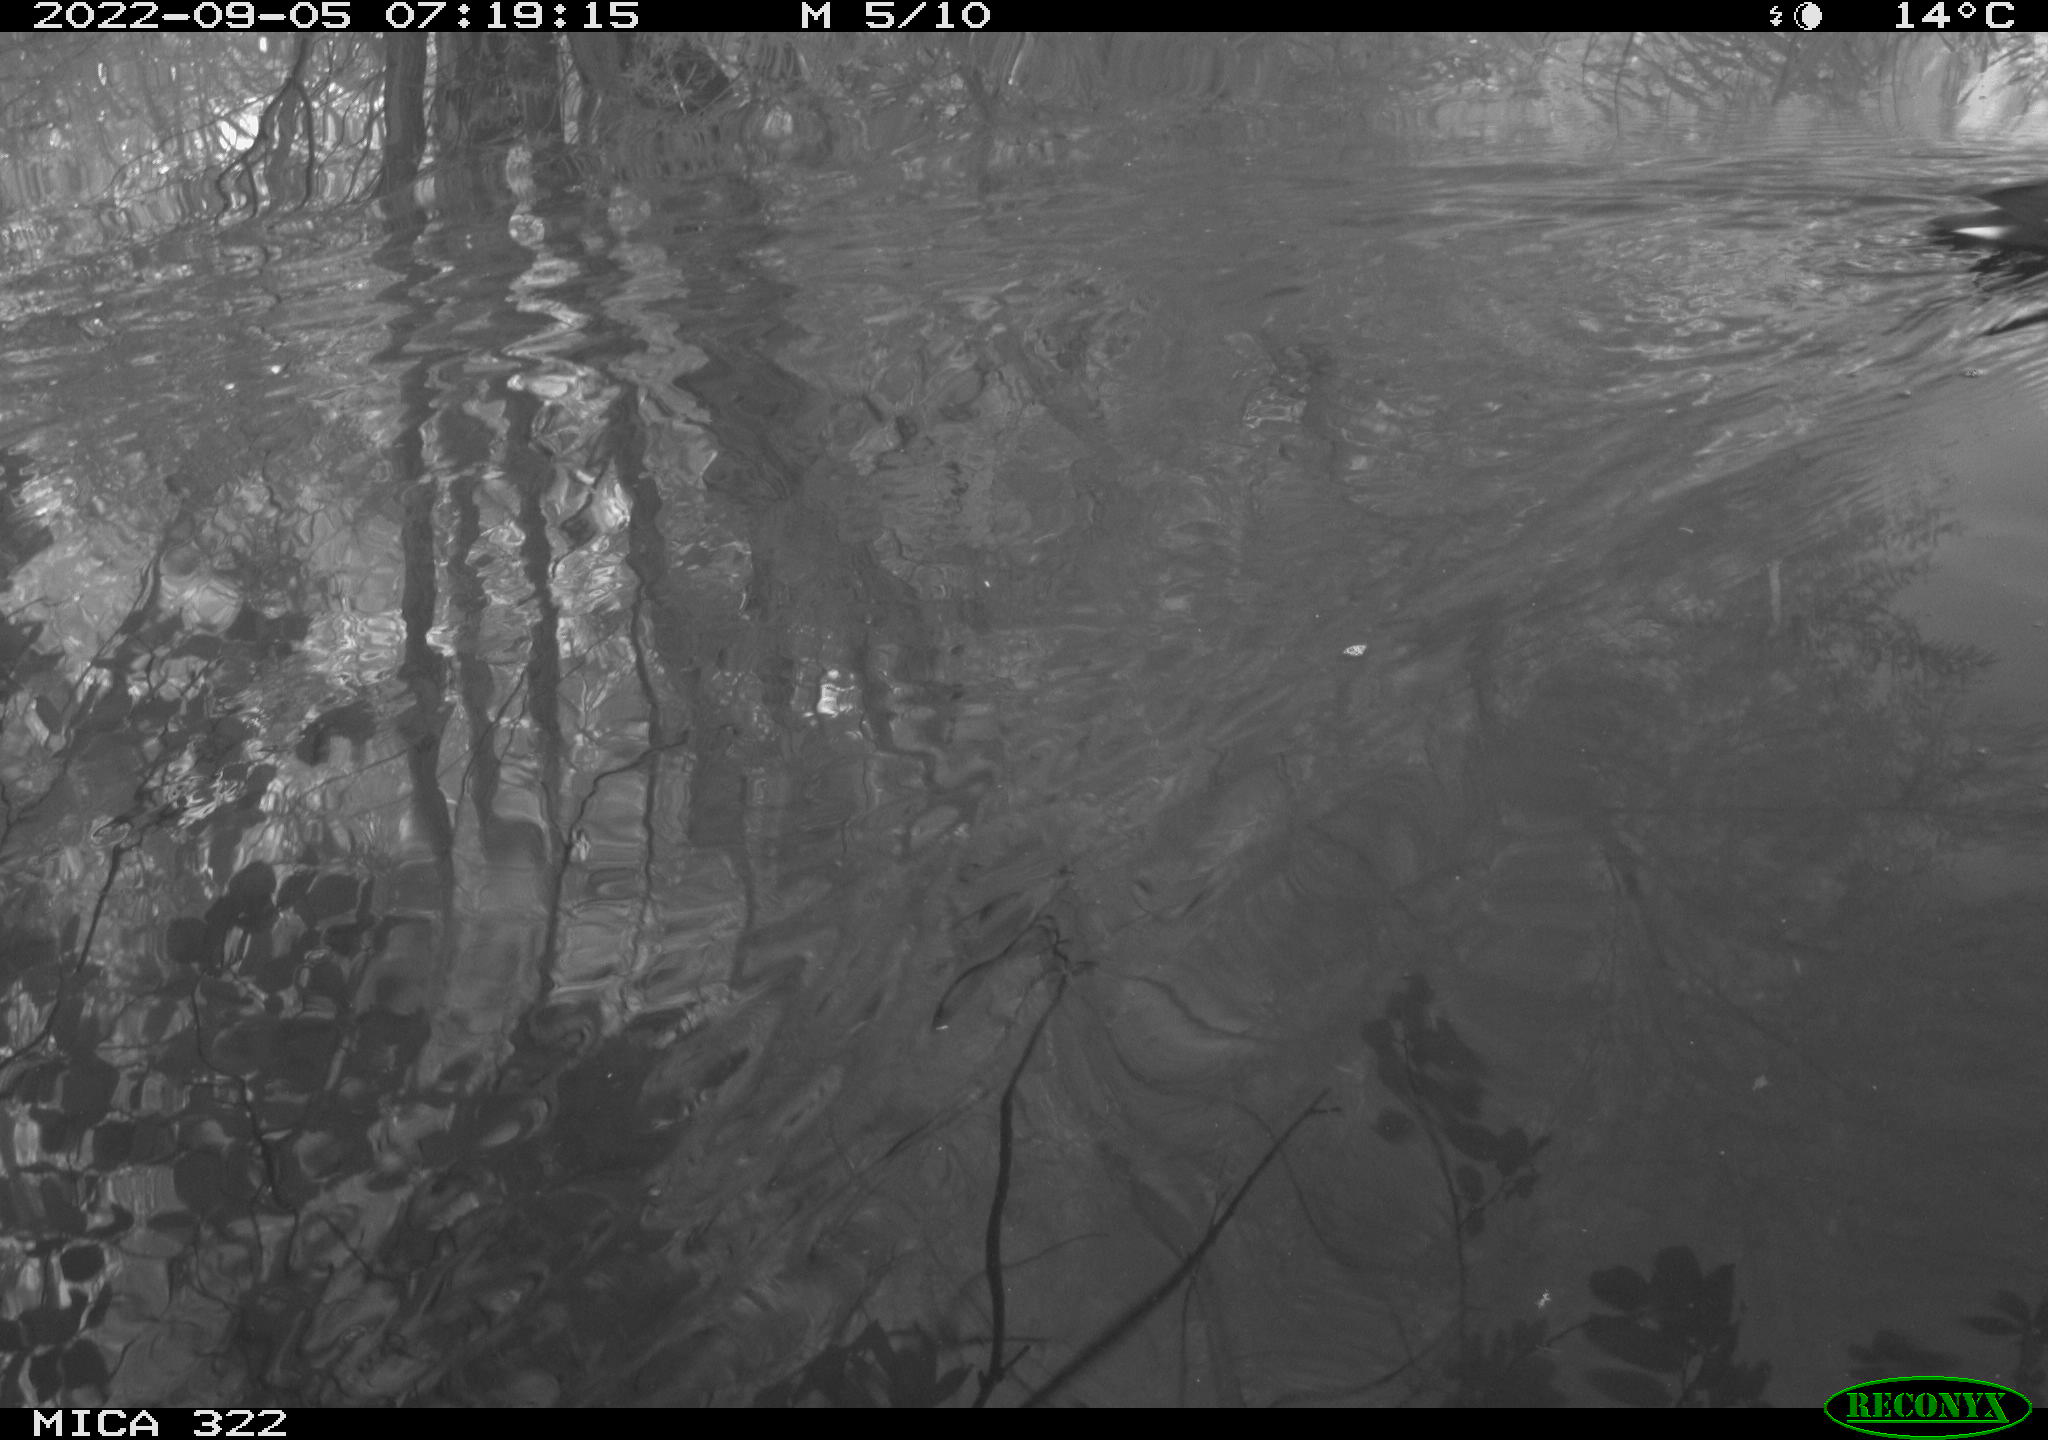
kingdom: Animalia
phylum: Chordata
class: Aves
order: Gruiformes
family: Rallidae
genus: Gallinula
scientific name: Gallinula chloropus
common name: Common moorhen
